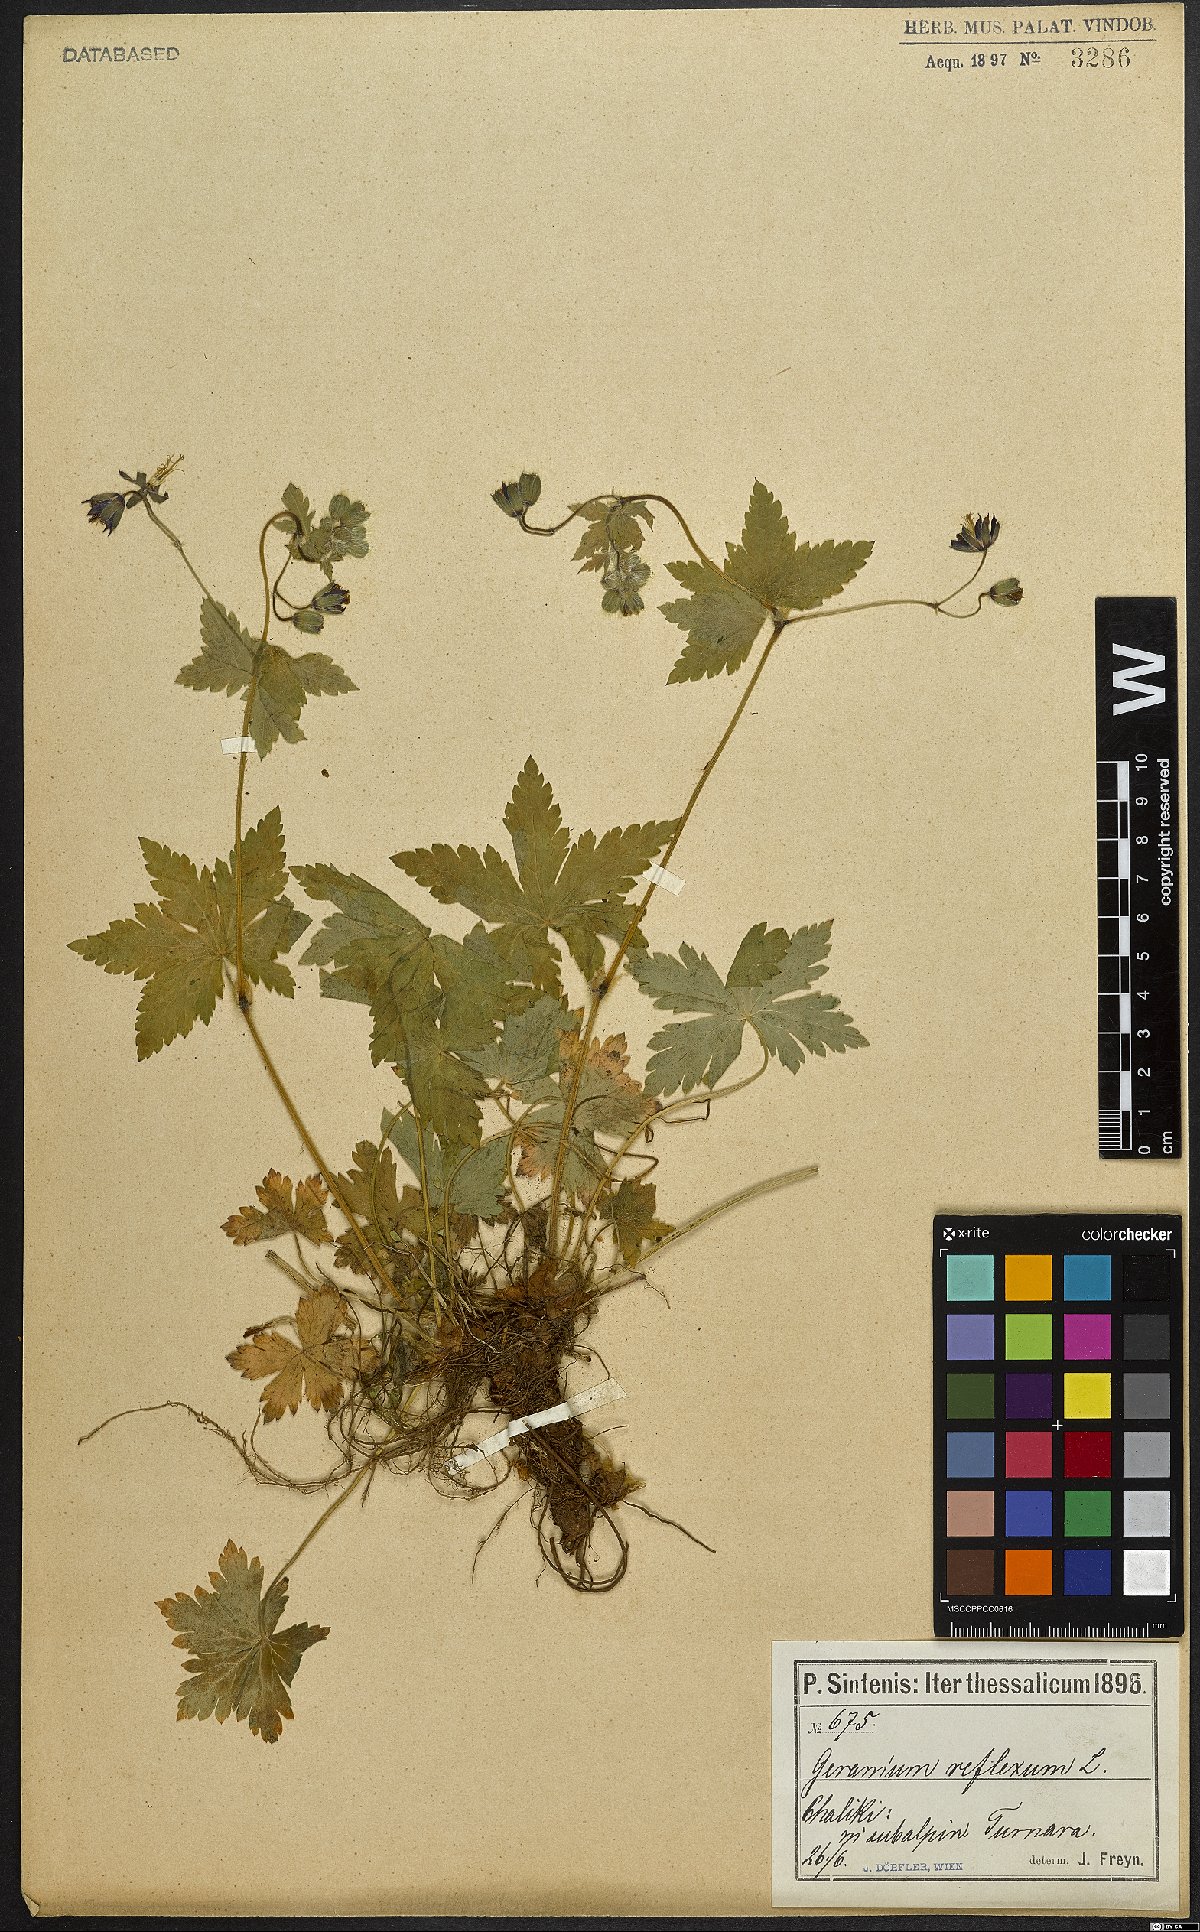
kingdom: Plantae
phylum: Tracheophyta
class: Magnoliopsida
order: Geraniales
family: Geraniaceae
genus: Geranium
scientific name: Geranium reflexum
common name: Reflexed crane's-bill
